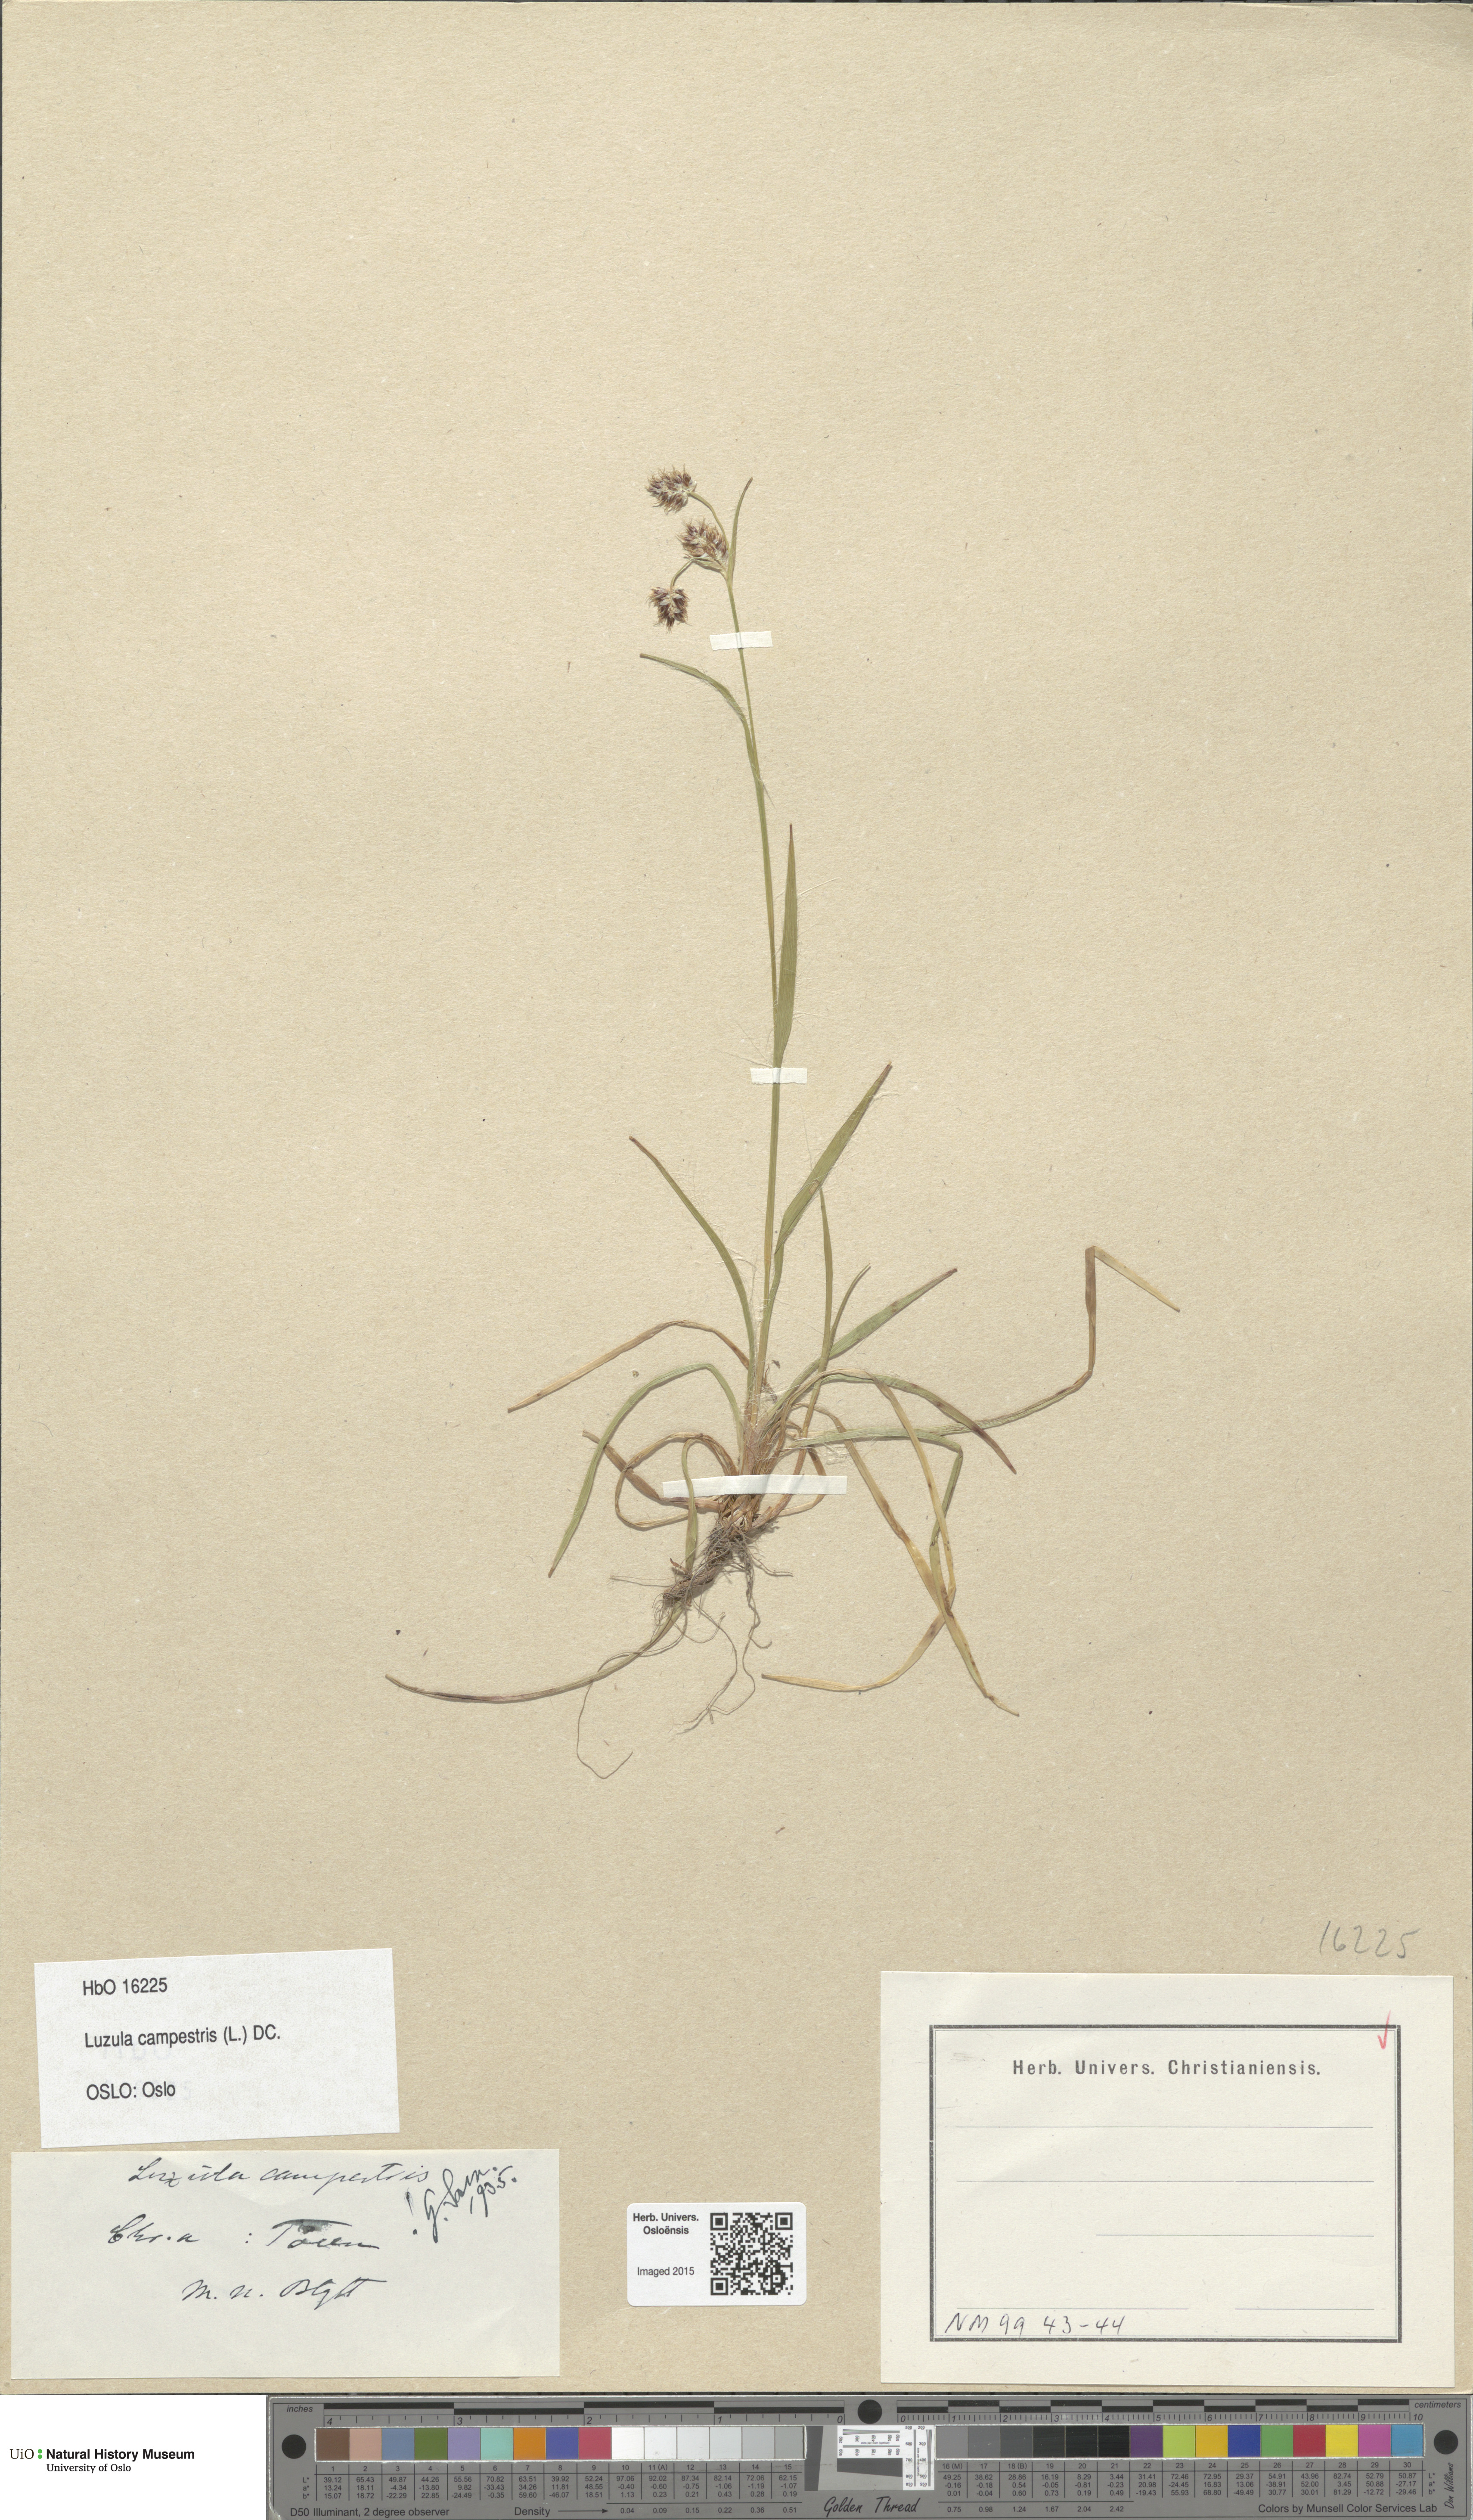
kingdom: Plantae
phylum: Tracheophyta
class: Liliopsida
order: Poales
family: Juncaceae
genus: Luzula
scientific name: Luzula campestris
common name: Field wood-rush
